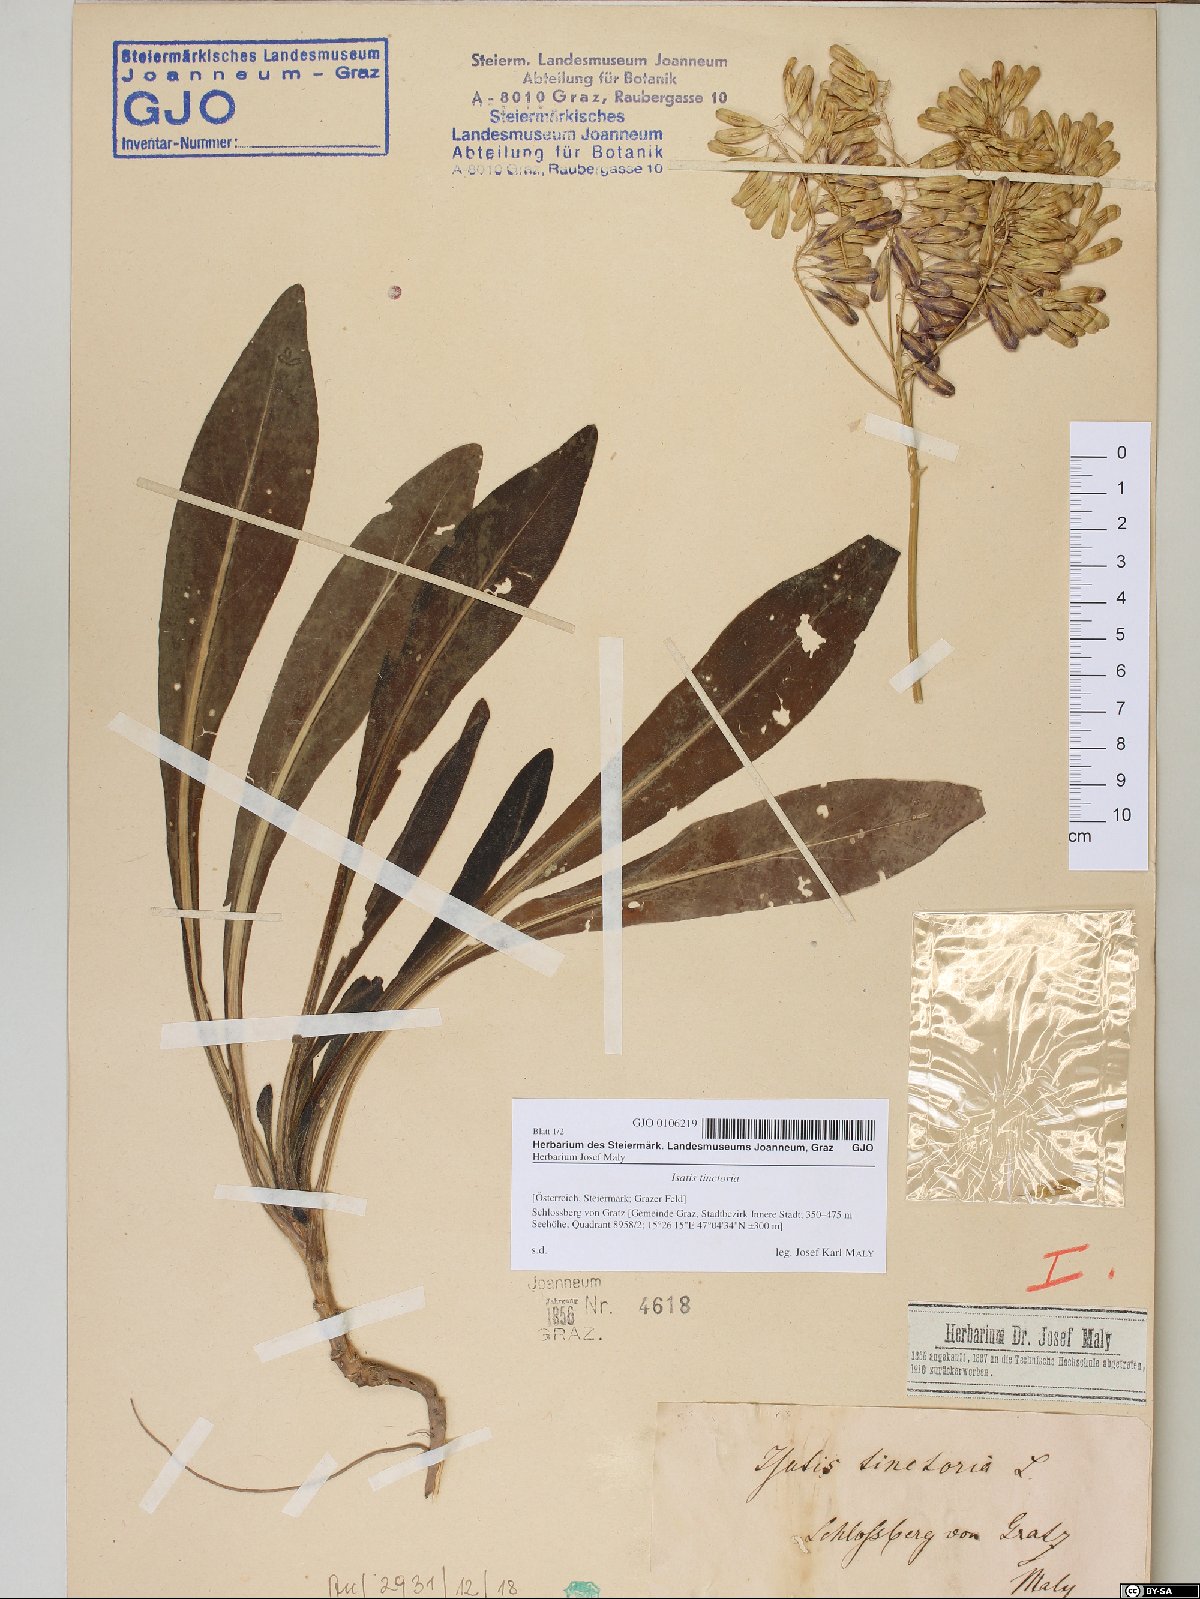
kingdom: Plantae
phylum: Tracheophyta
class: Magnoliopsida
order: Brassicales
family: Brassicaceae
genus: Isatis
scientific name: Isatis tinctoria
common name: Woad
